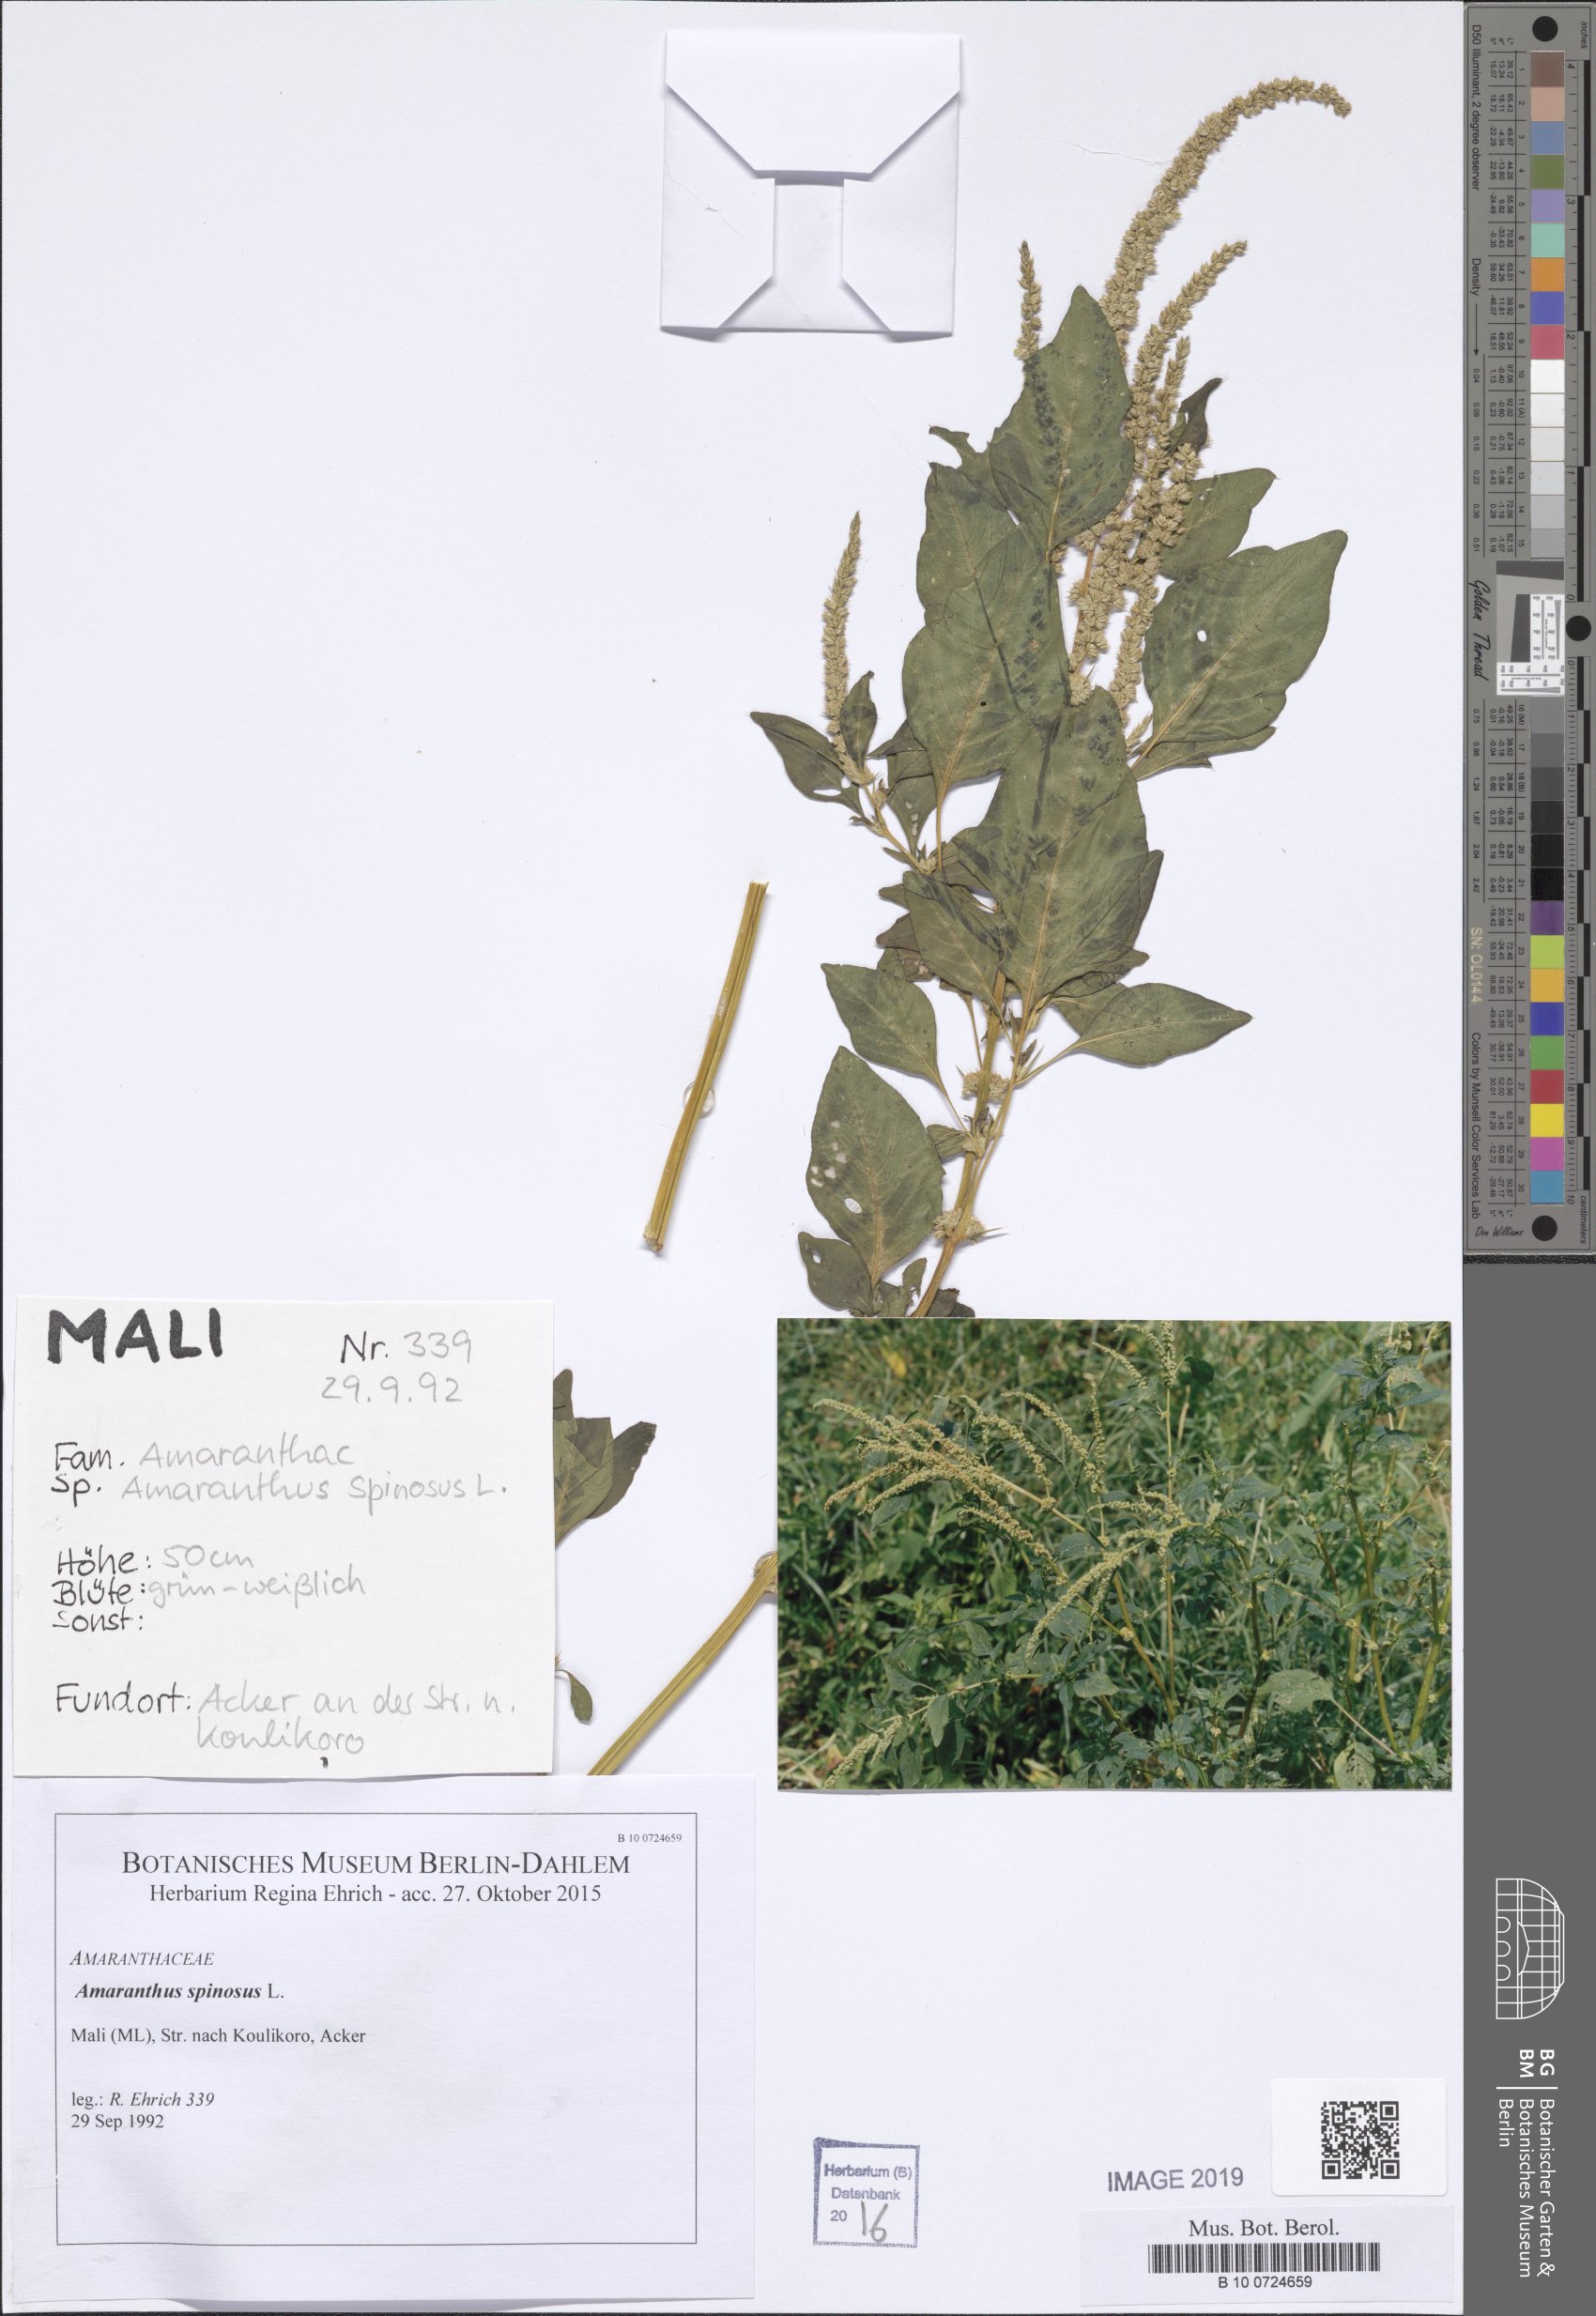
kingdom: Plantae
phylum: Tracheophyta
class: Magnoliopsida
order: Caryophyllales
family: Amaranthaceae
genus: Amaranthus
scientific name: Amaranthus spinosus
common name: Spiny amaranth
